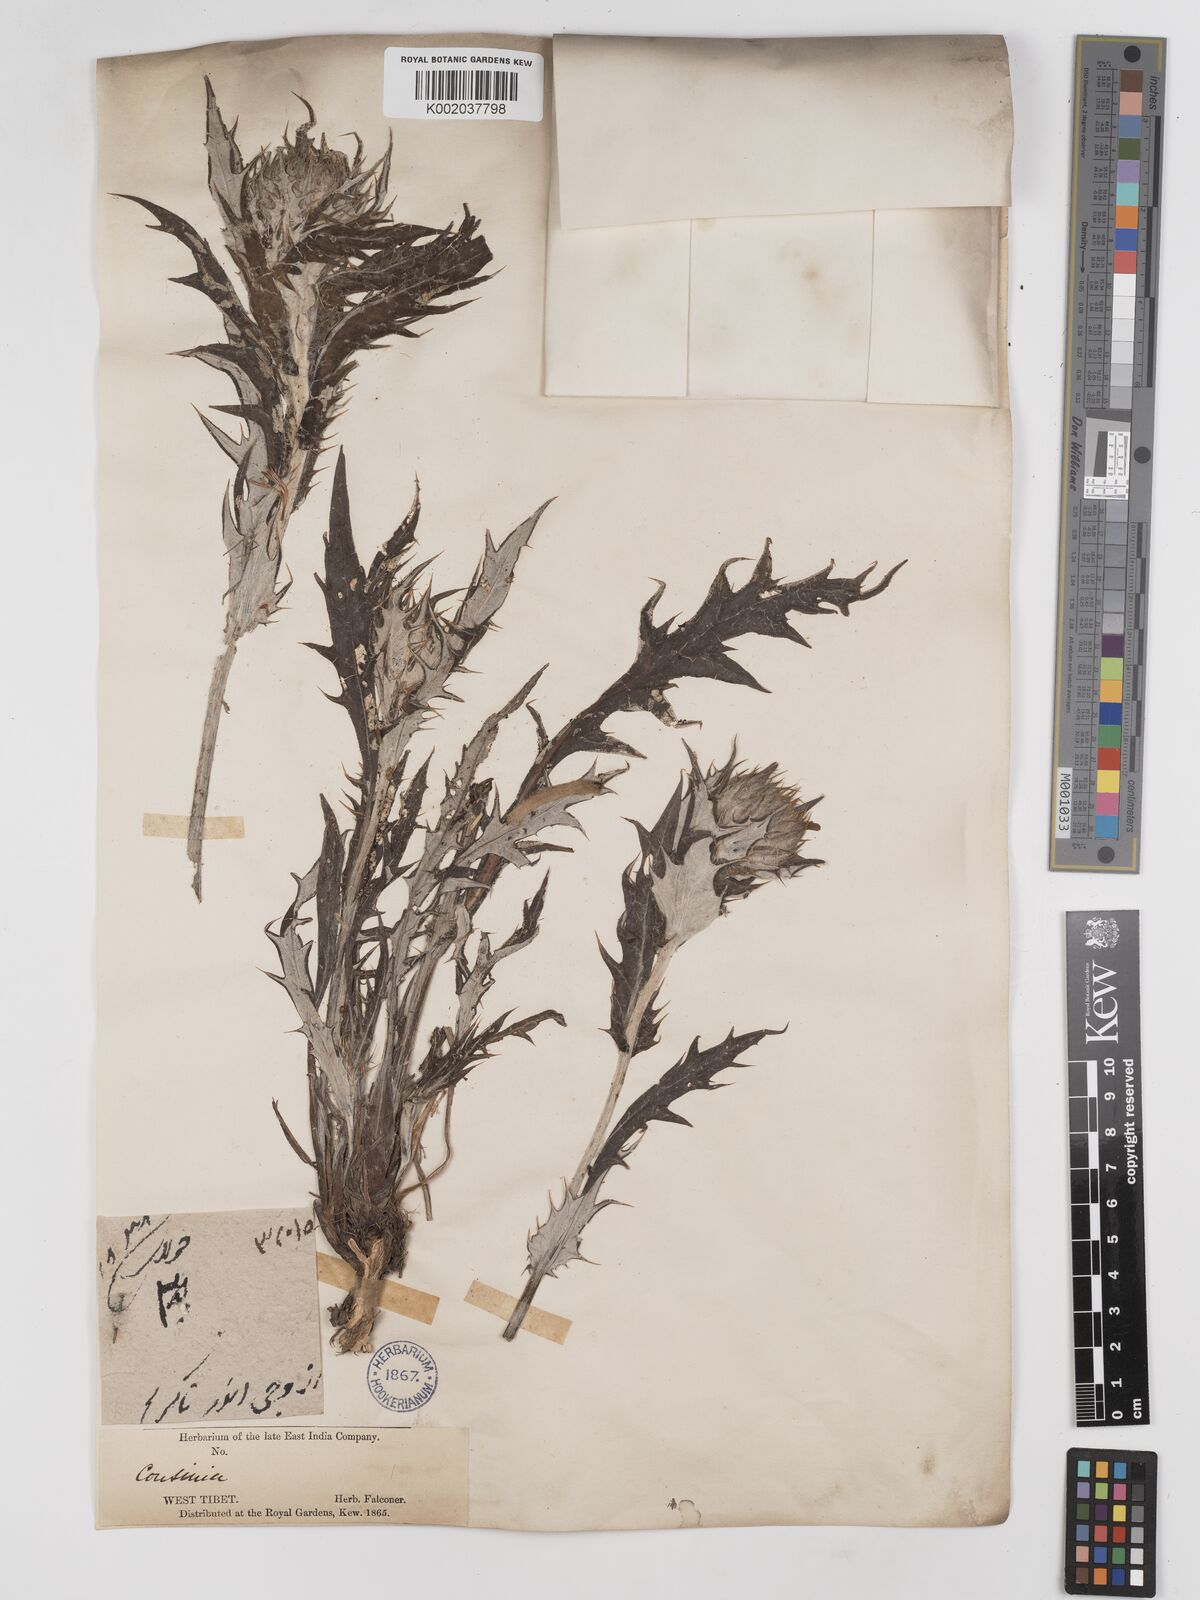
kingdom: Plantae
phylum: Tracheophyta
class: Magnoliopsida
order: Asterales
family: Asteraceae
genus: Cousinia
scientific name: Cousinia
